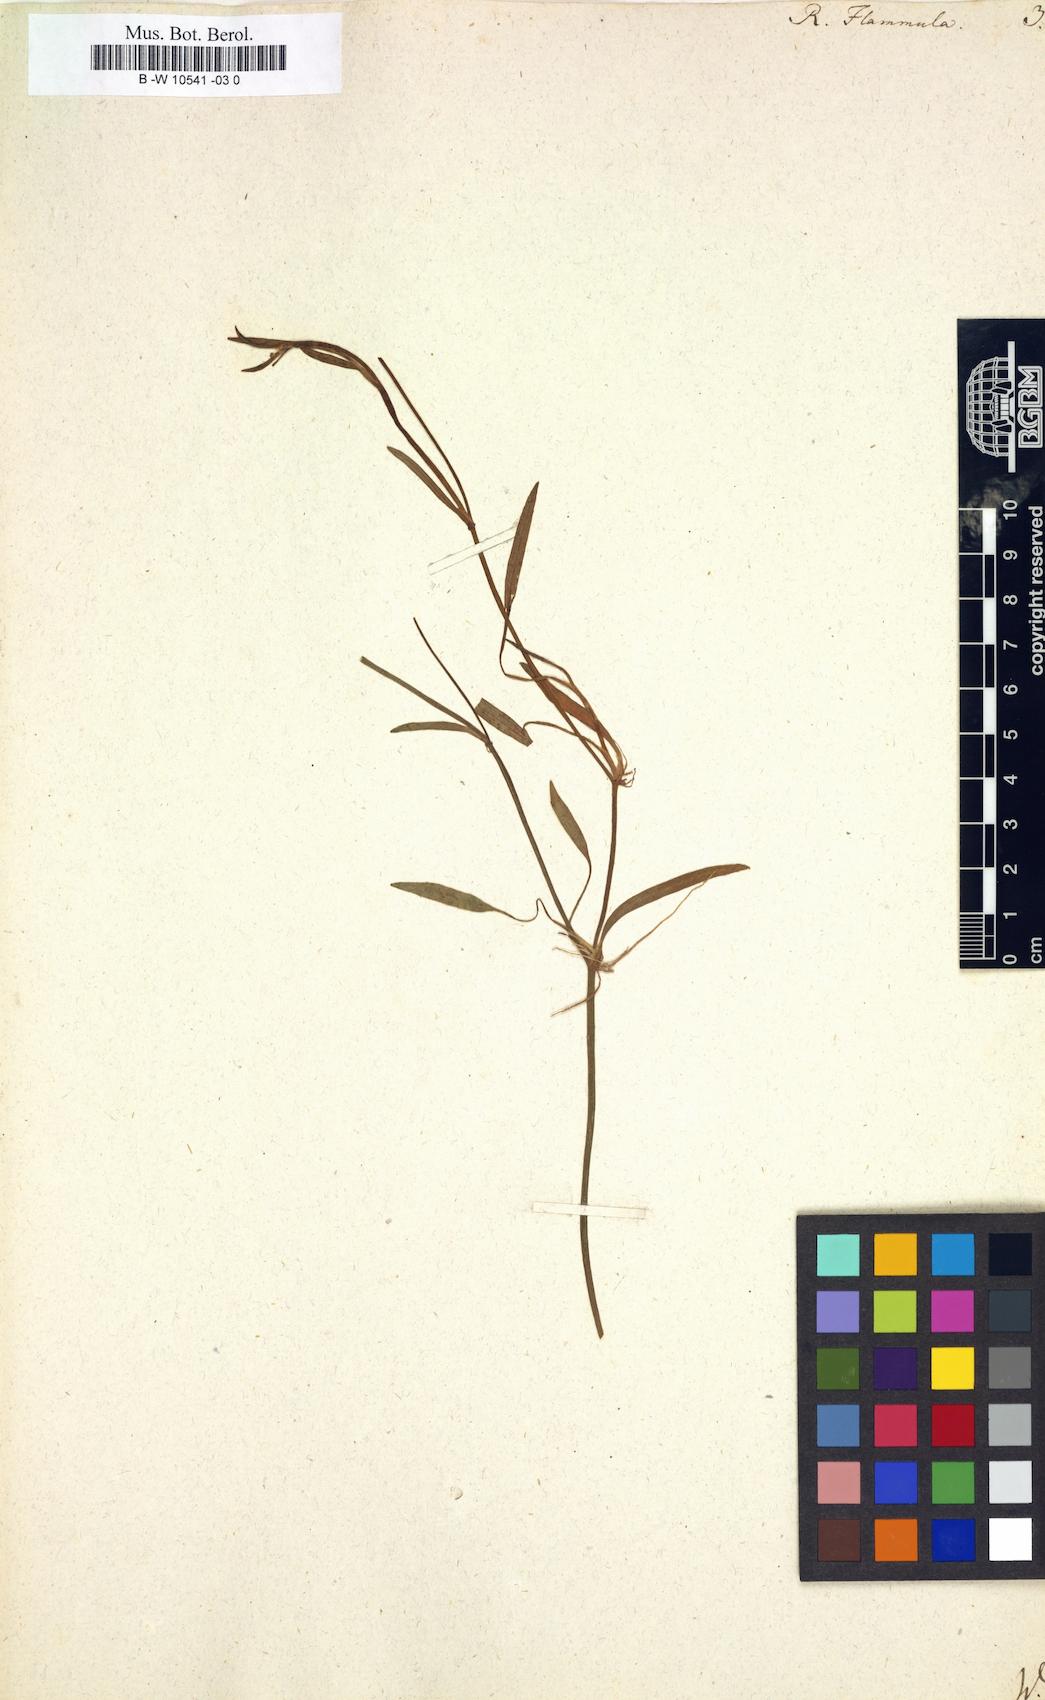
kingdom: Plantae
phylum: Tracheophyta
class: Magnoliopsida
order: Ranunculales
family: Ranunculaceae
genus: Ranunculus
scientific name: Ranunculus flammula
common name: Lesser spearwort
